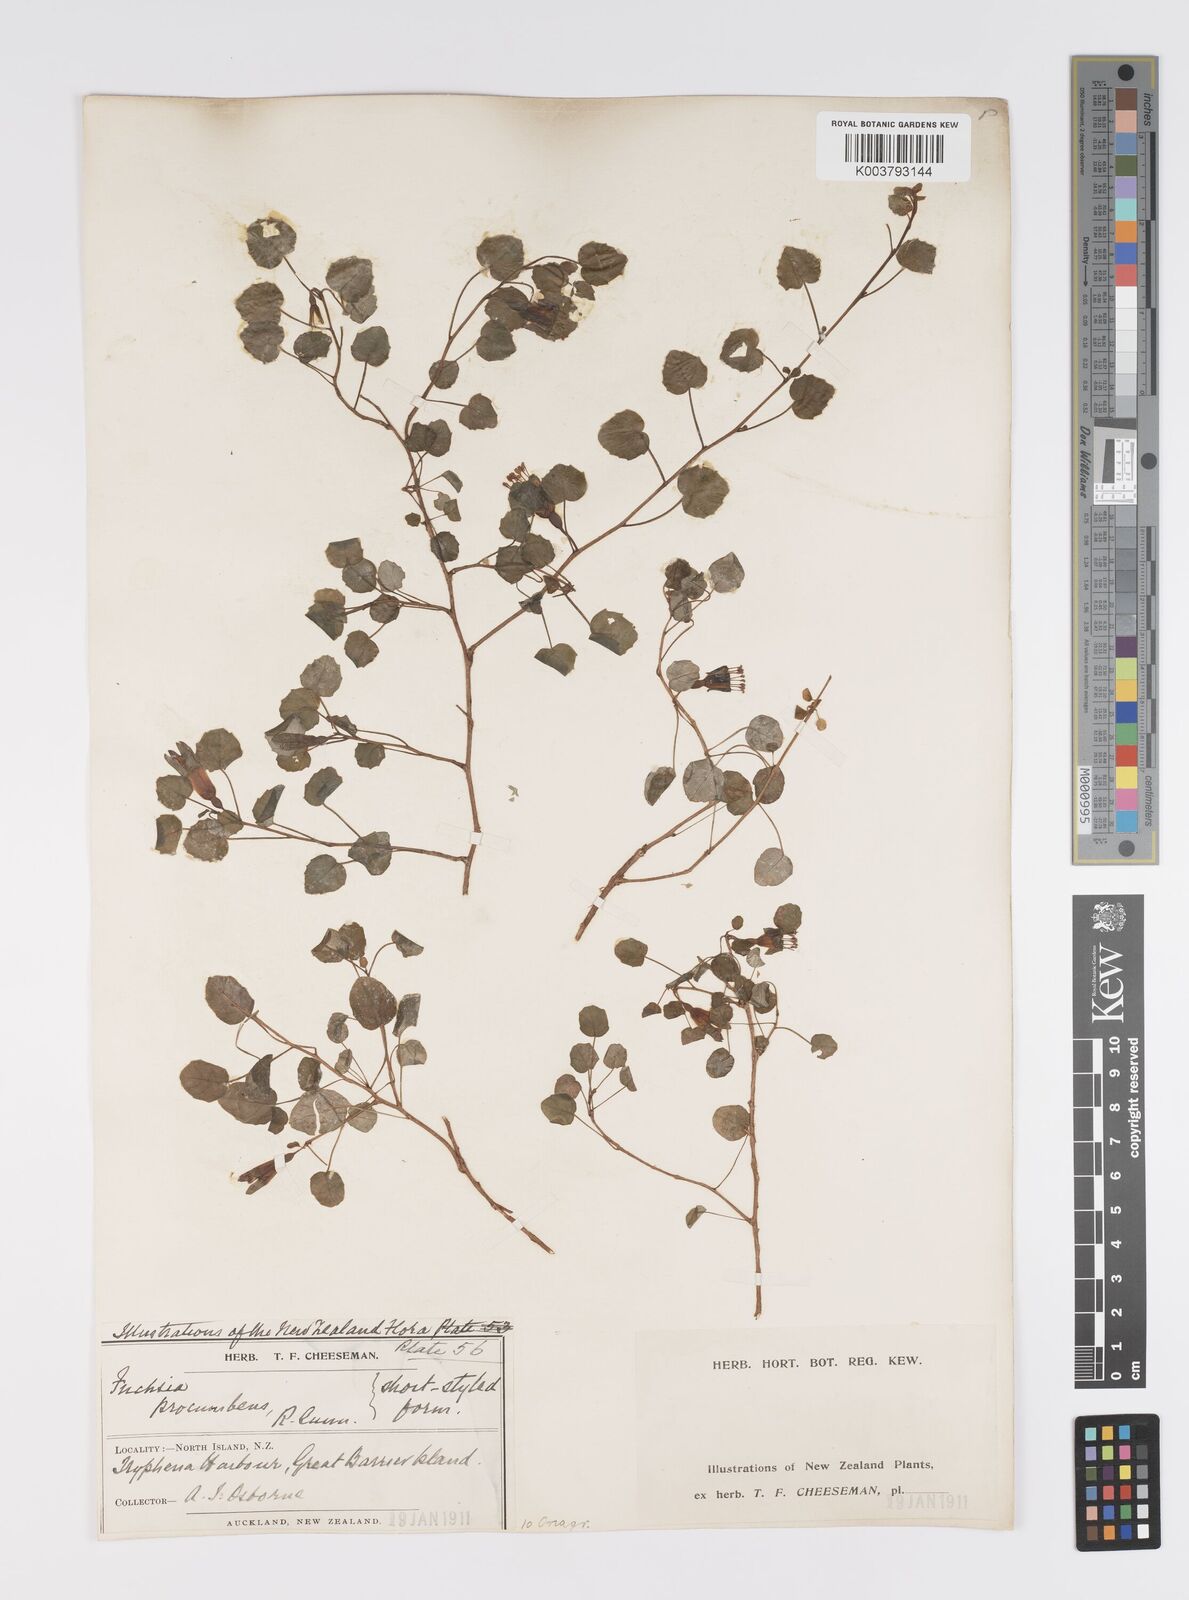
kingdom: Plantae
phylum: Tracheophyta
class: Magnoliopsida
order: Myrtales
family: Onagraceae
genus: Fuchsia
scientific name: Fuchsia procumbens
